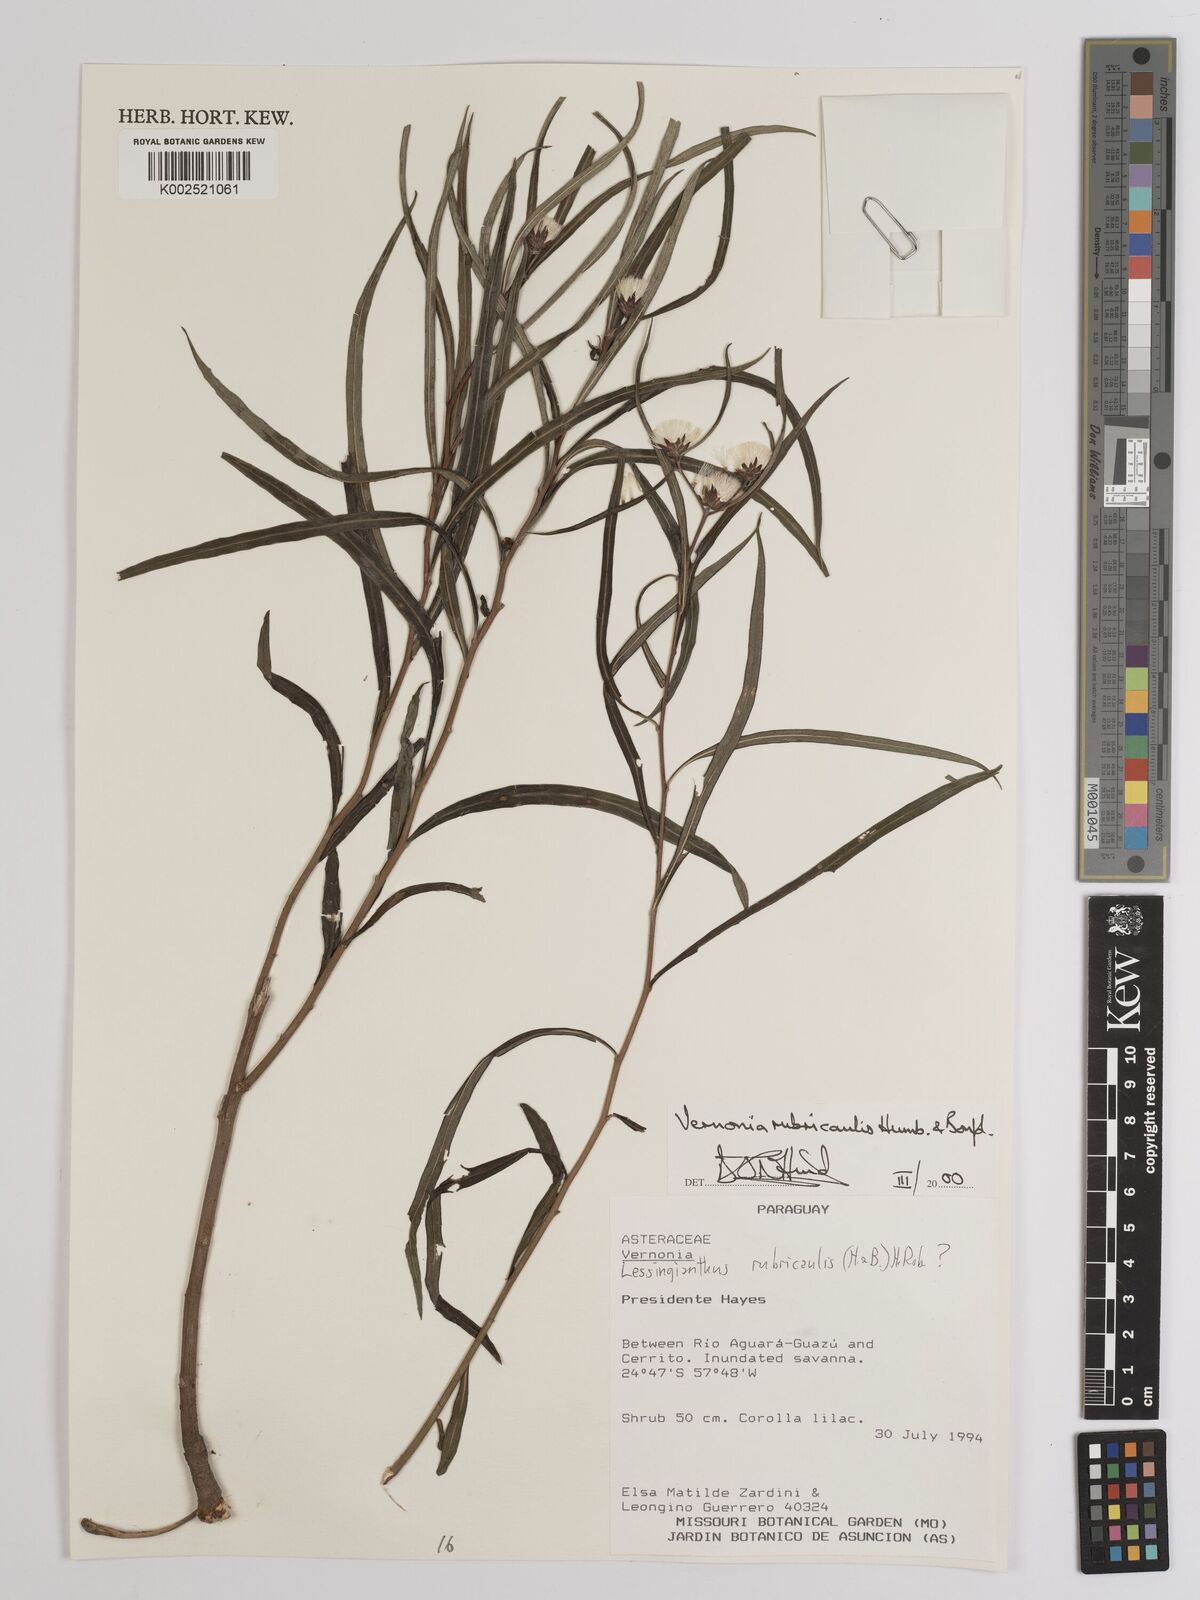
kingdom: Plantae
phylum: Tracheophyta
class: Magnoliopsida
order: Asterales
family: Asteraceae
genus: Lessingianthus
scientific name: Lessingianthus rubricaulis
